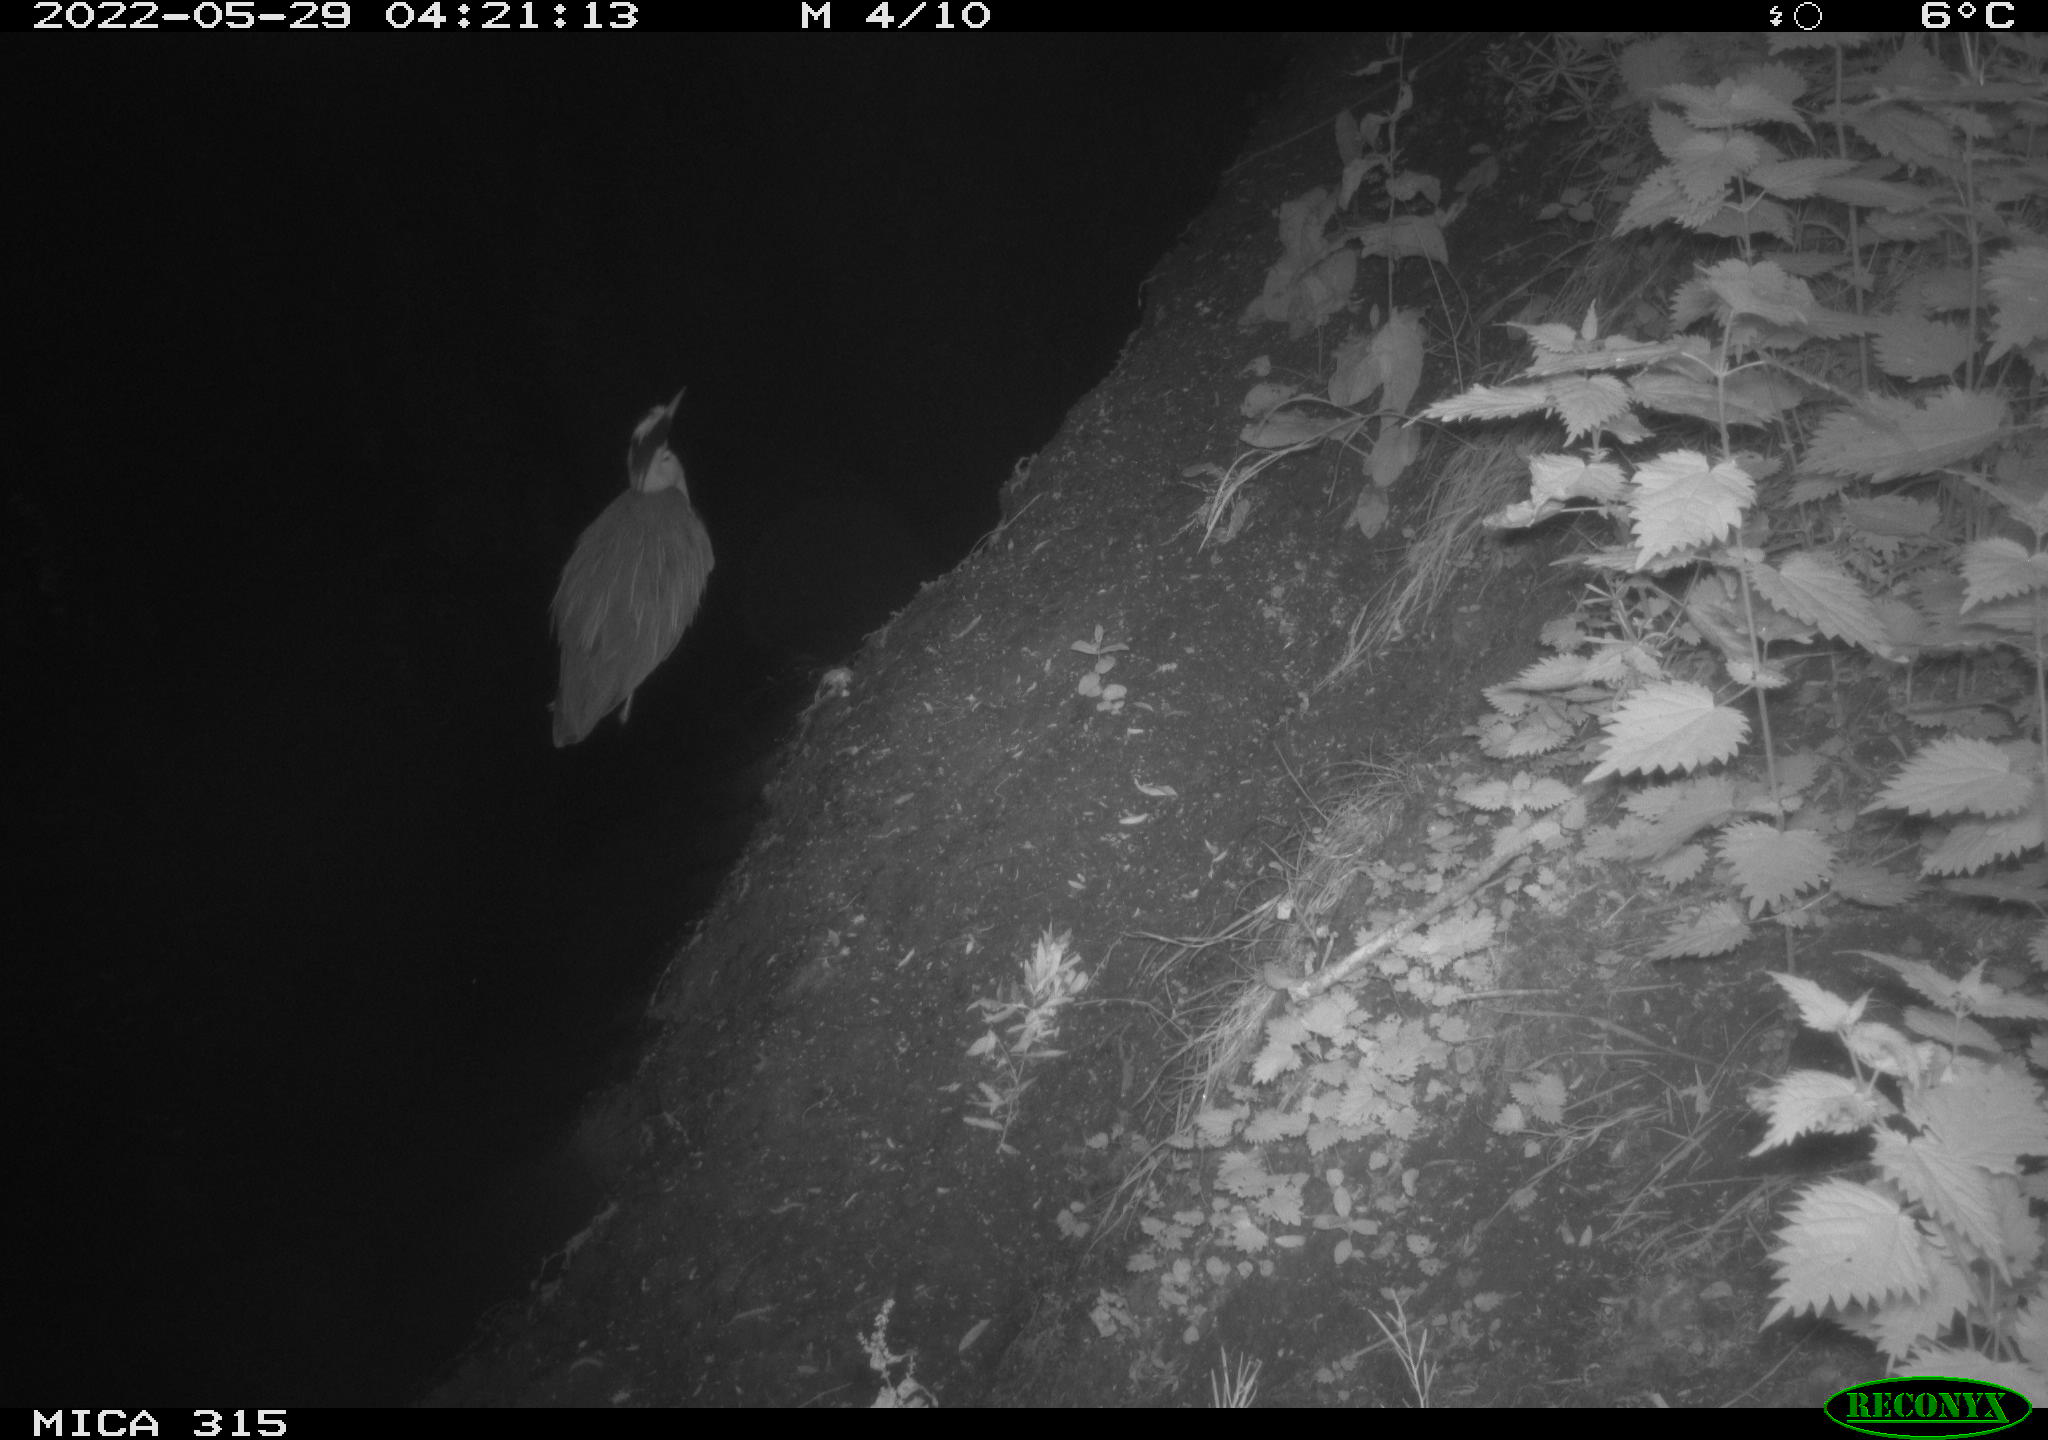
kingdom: Animalia
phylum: Chordata
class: Aves
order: Pelecaniformes
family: Ardeidae
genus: Ardea
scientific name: Ardea cinerea
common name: Grey heron
